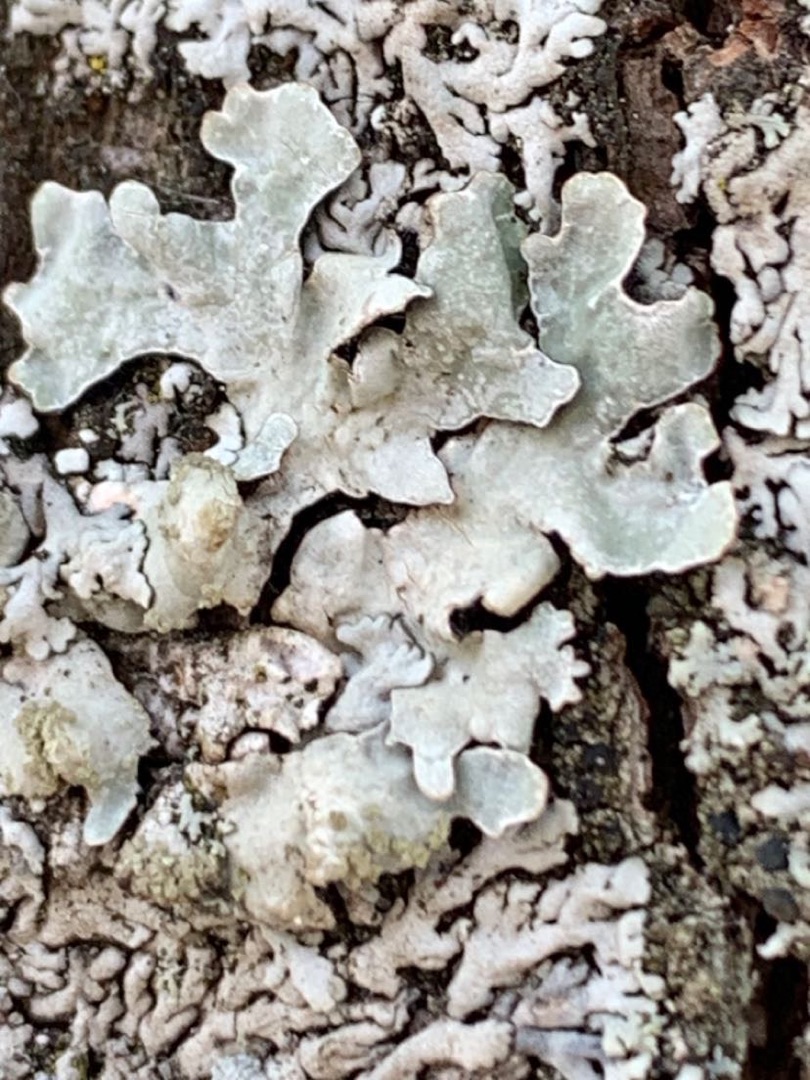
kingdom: Fungi
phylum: Ascomycota
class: Lecanoromycetes
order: Lecanorales
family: Parmeliaceae
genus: Parmelia
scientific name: Parmelia sulcata
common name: Rynket skållav
